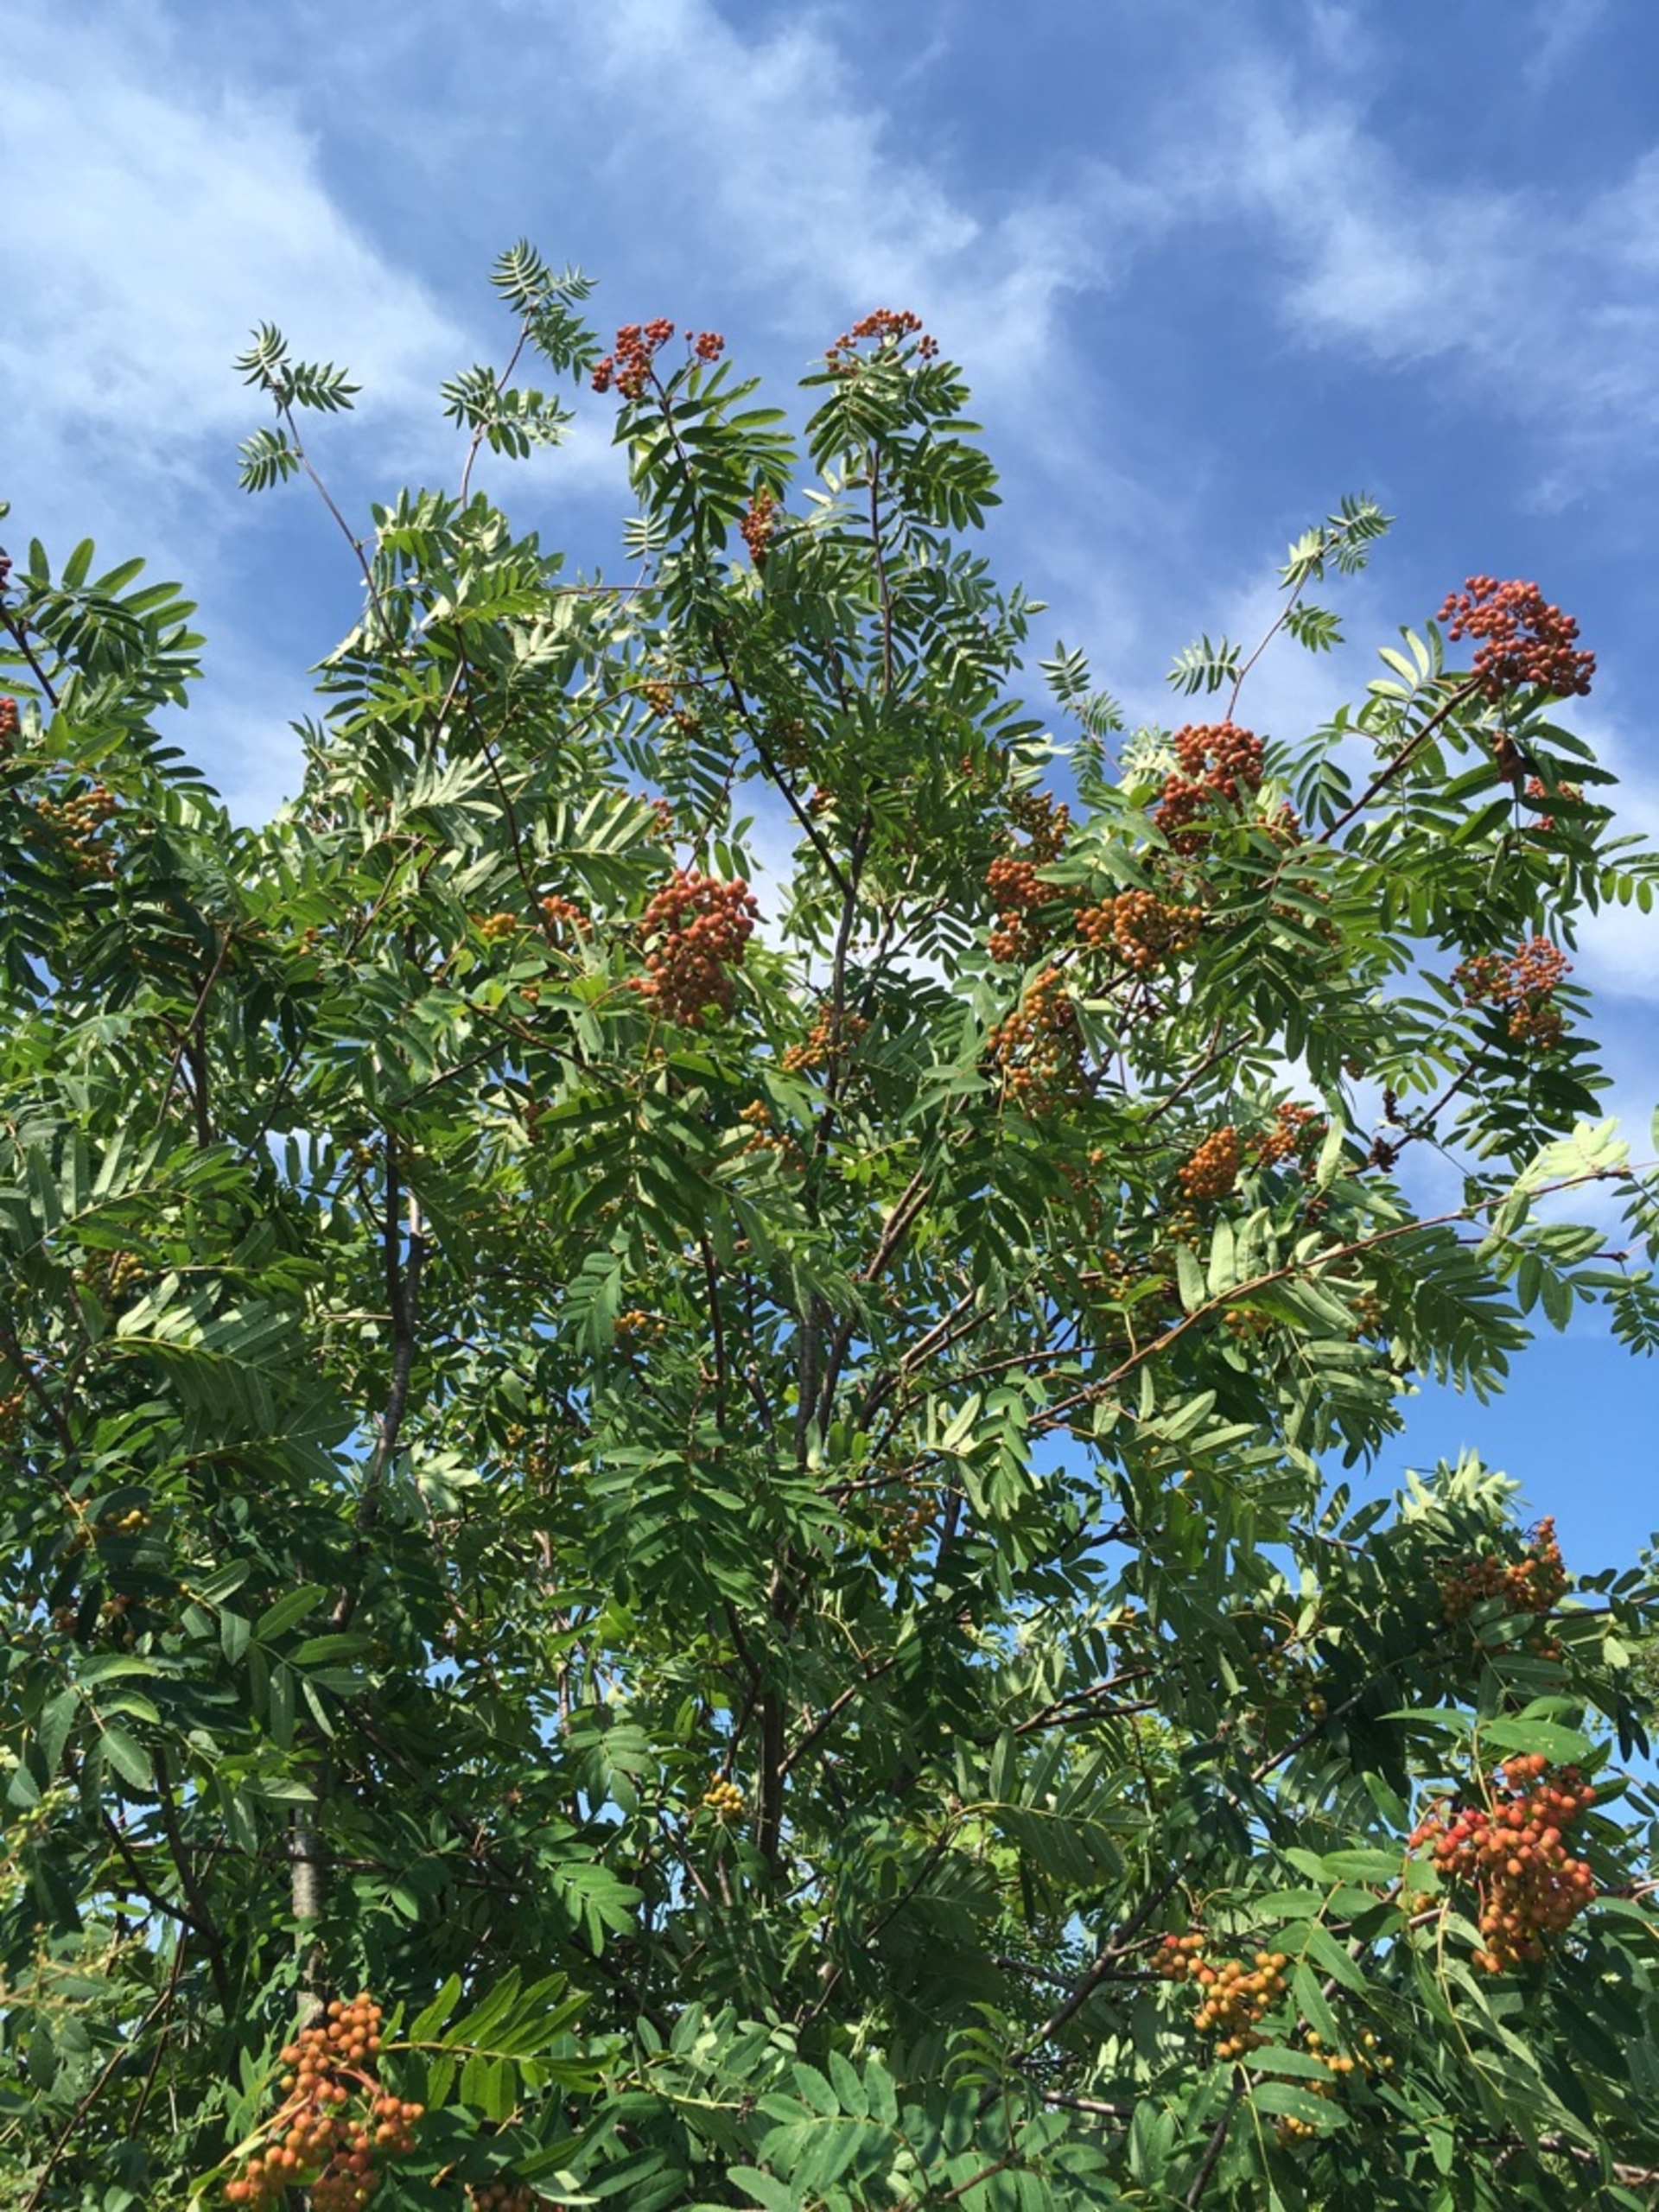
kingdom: Plantae
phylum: Tracheophyta
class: Magnoliopsida
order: Rosales
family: Rosaceae
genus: Sorbus
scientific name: Sorbus aucuparia
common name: Almindelig røn
